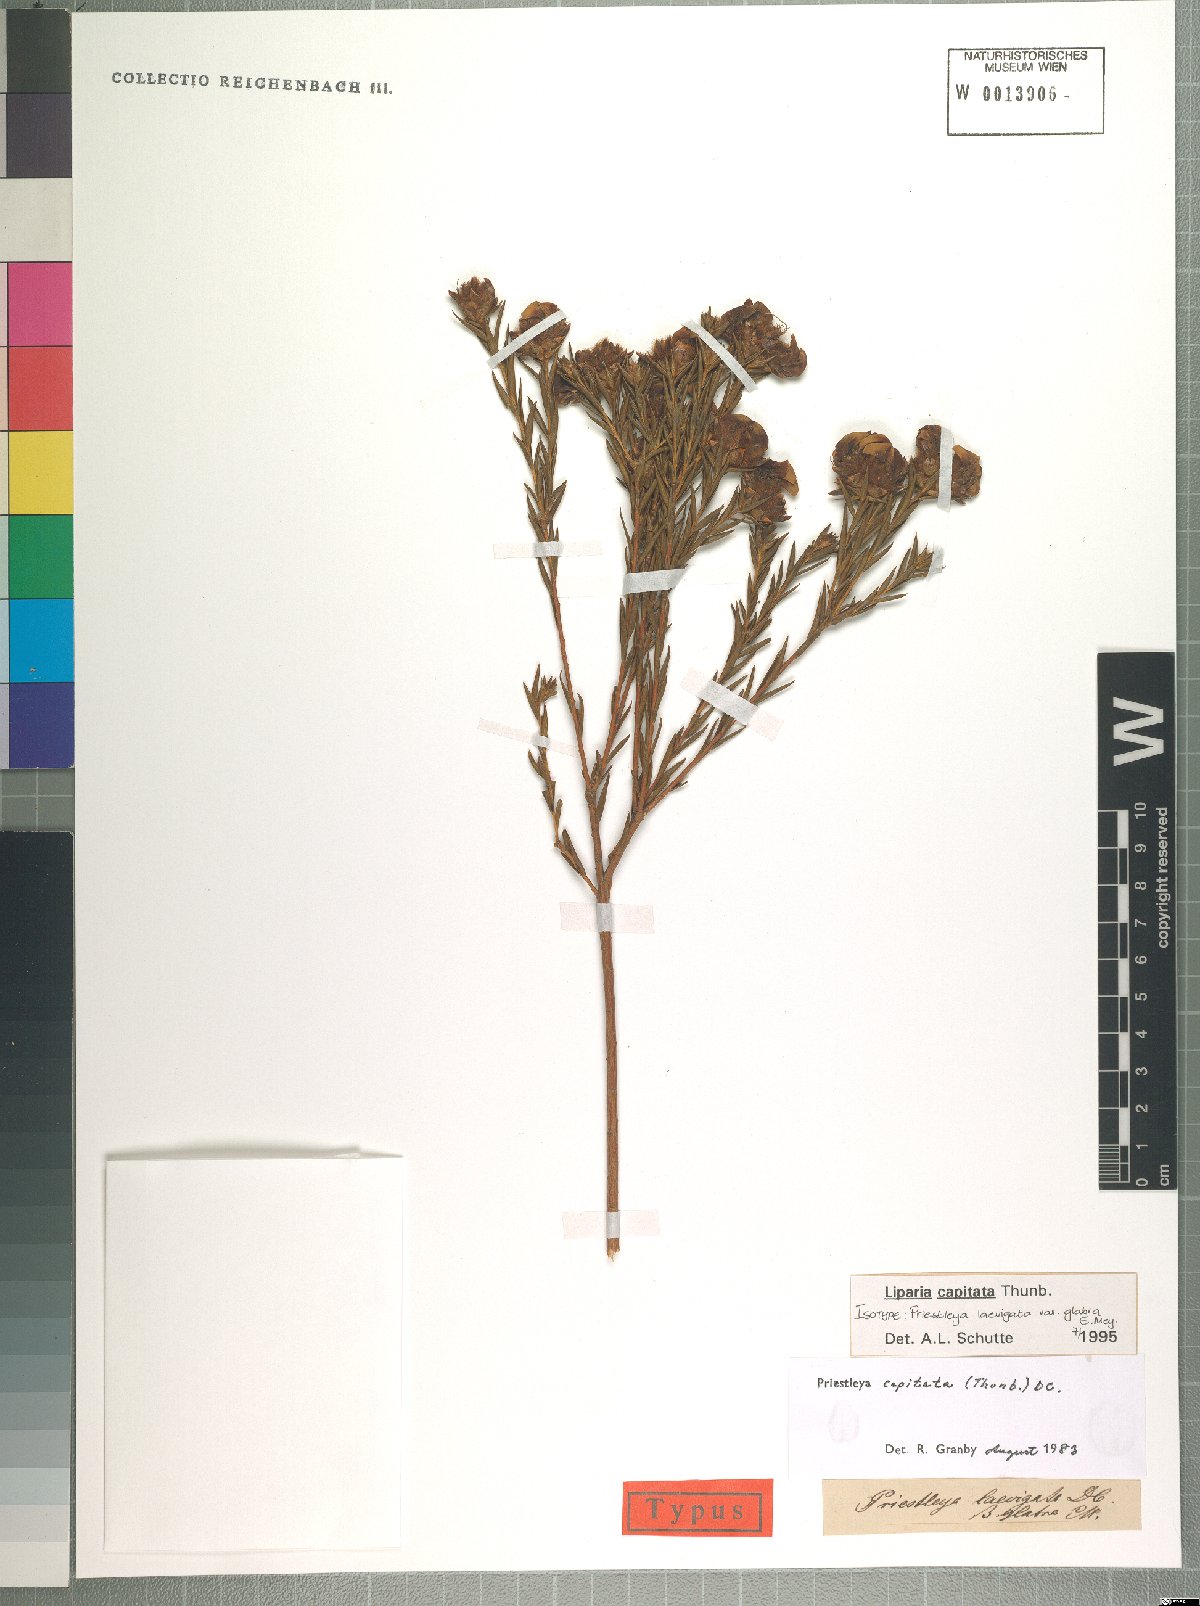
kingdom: Plantae
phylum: Tracheophyta
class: Magnoliopsida
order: Fabales
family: Fabaceae
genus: Liparia
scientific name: Liparia capitata
